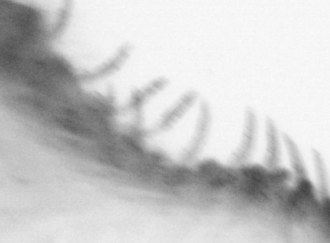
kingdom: Animalia
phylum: Annelida
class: Polychaeta
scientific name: Polychaeta
